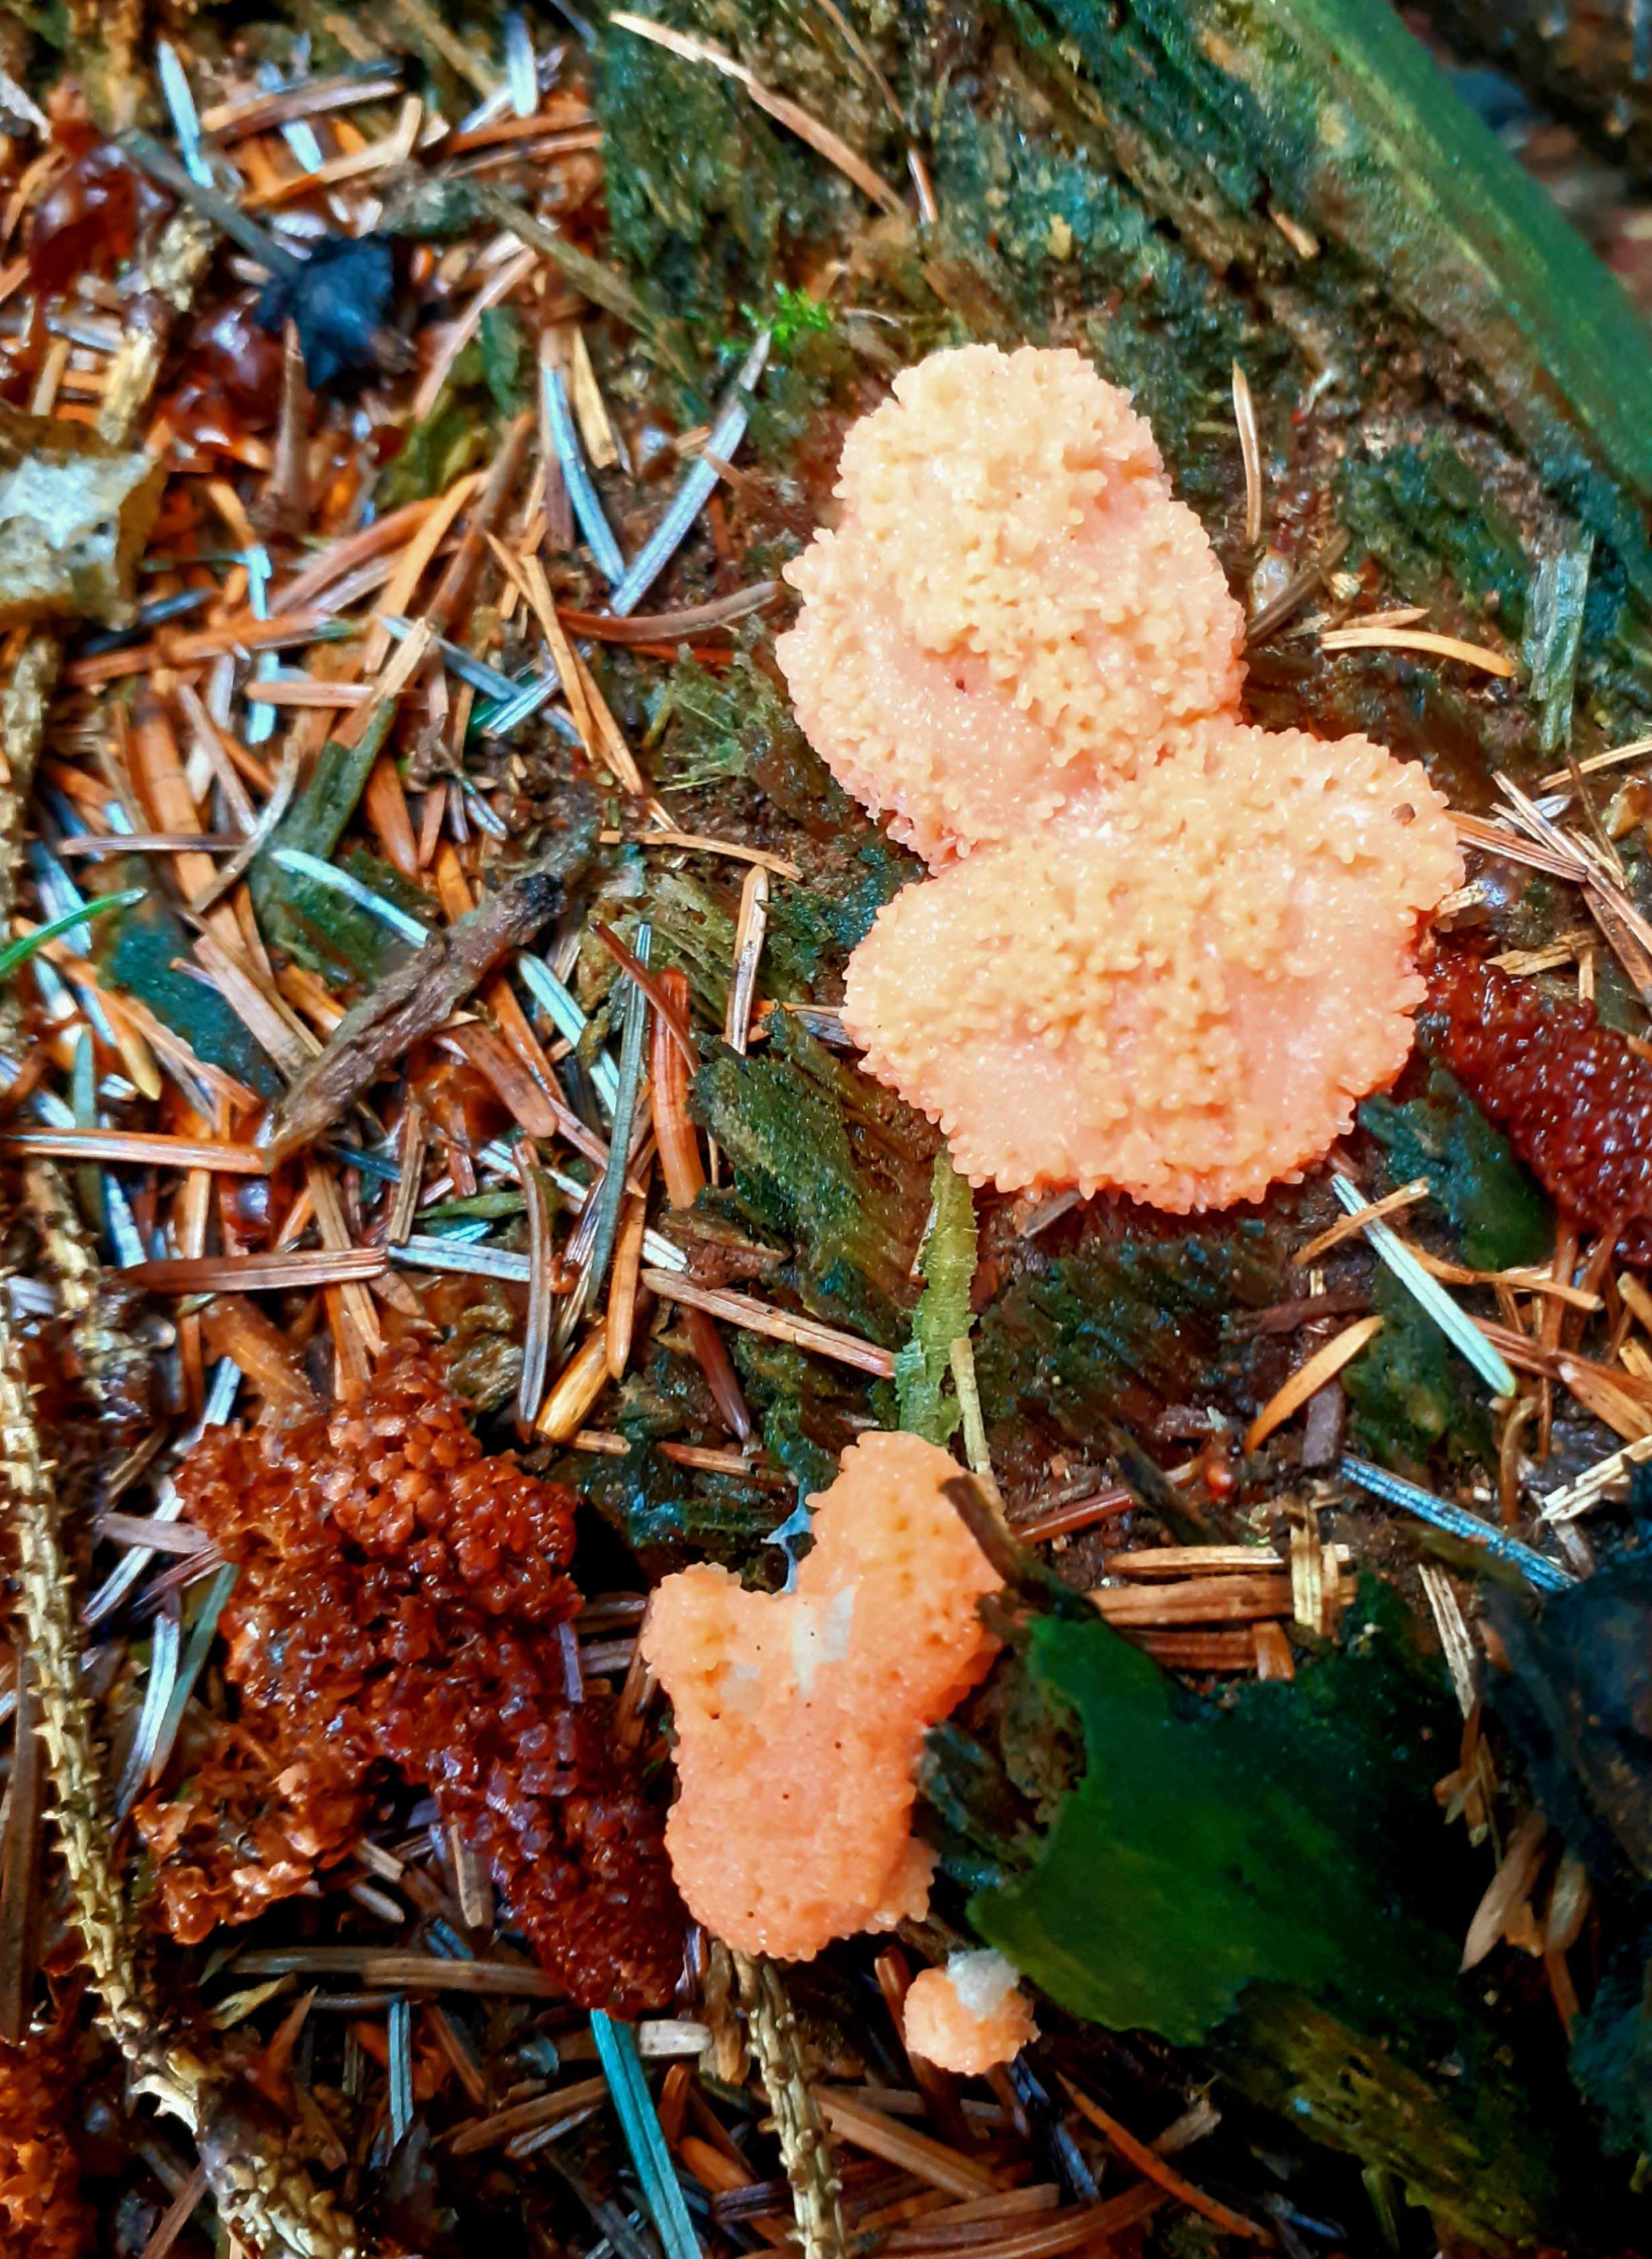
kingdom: Protozoa
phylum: Mycetozoa
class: Myxomycetes
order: Cribrariales
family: Tubiferaceae
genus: Tubifera
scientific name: Tubifera ferruginosa
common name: kanel-støvrør
